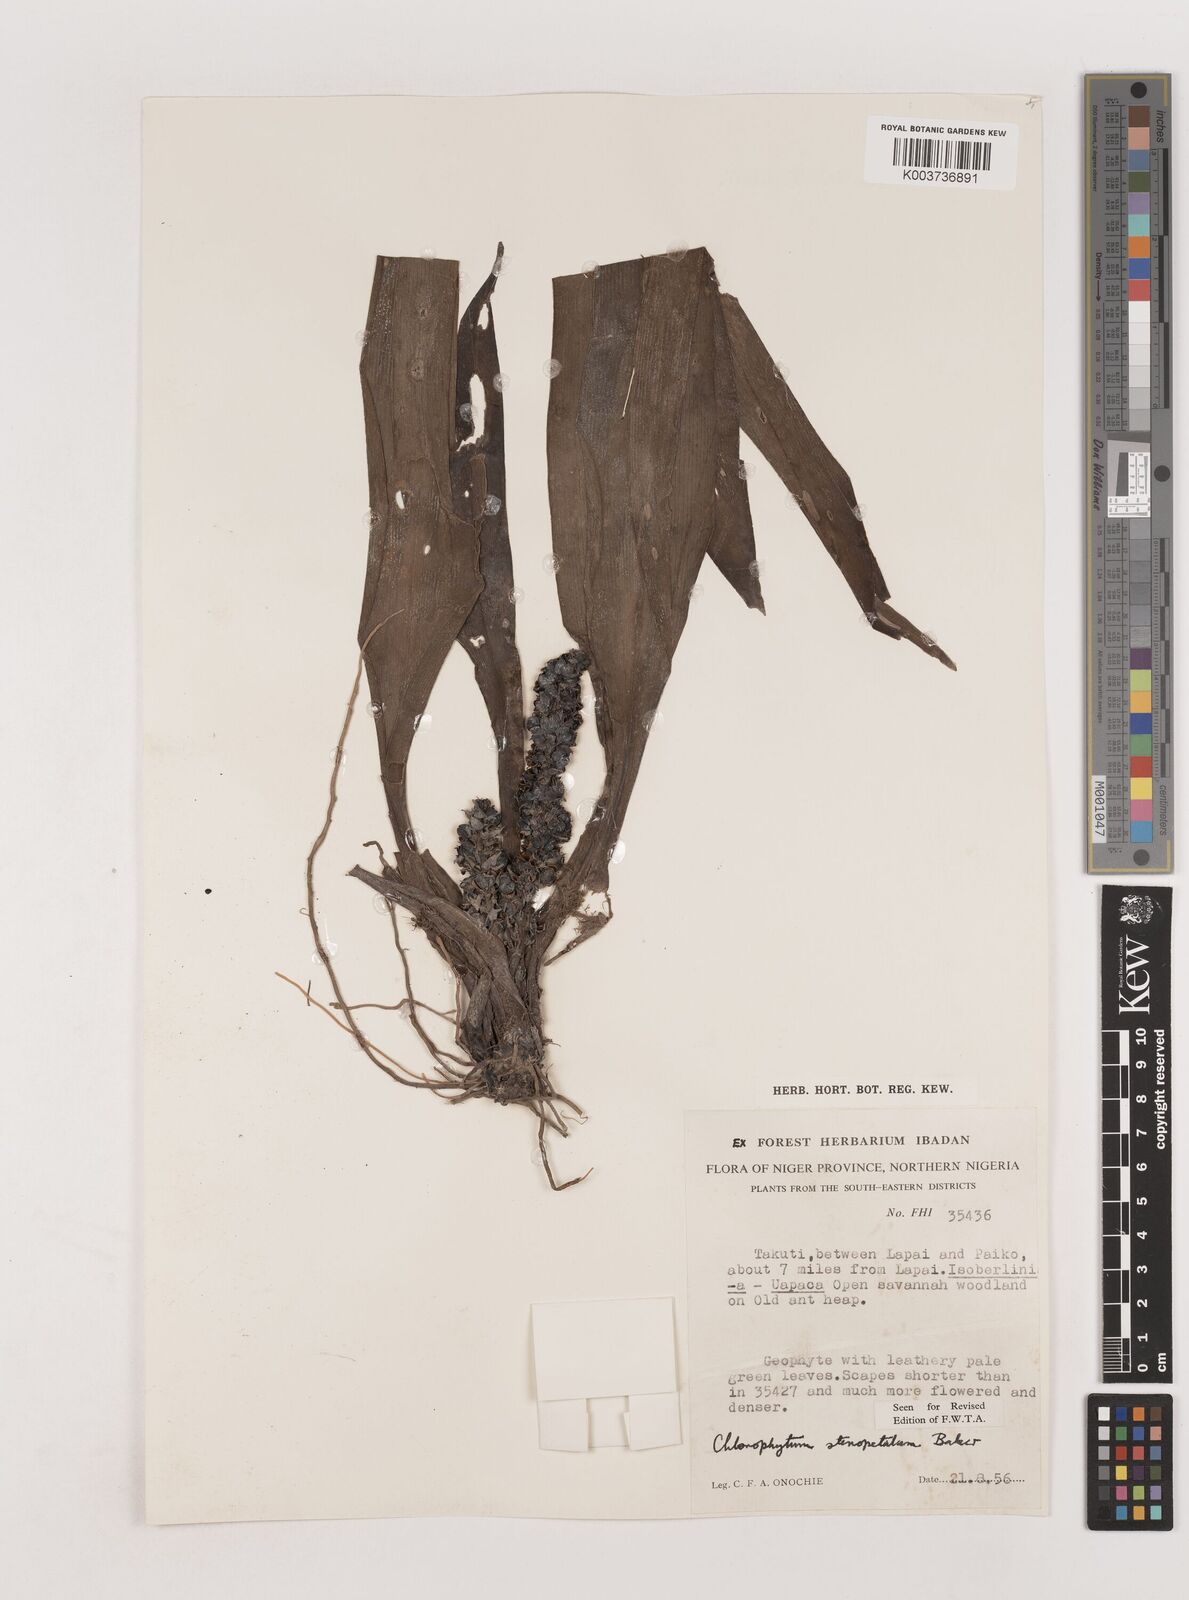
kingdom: Plantae
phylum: Tracheophyta
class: Liliopsida
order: Asparagales
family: Asparagaceae
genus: Chlorophytum
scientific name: Chlorophytum stenopetalum
